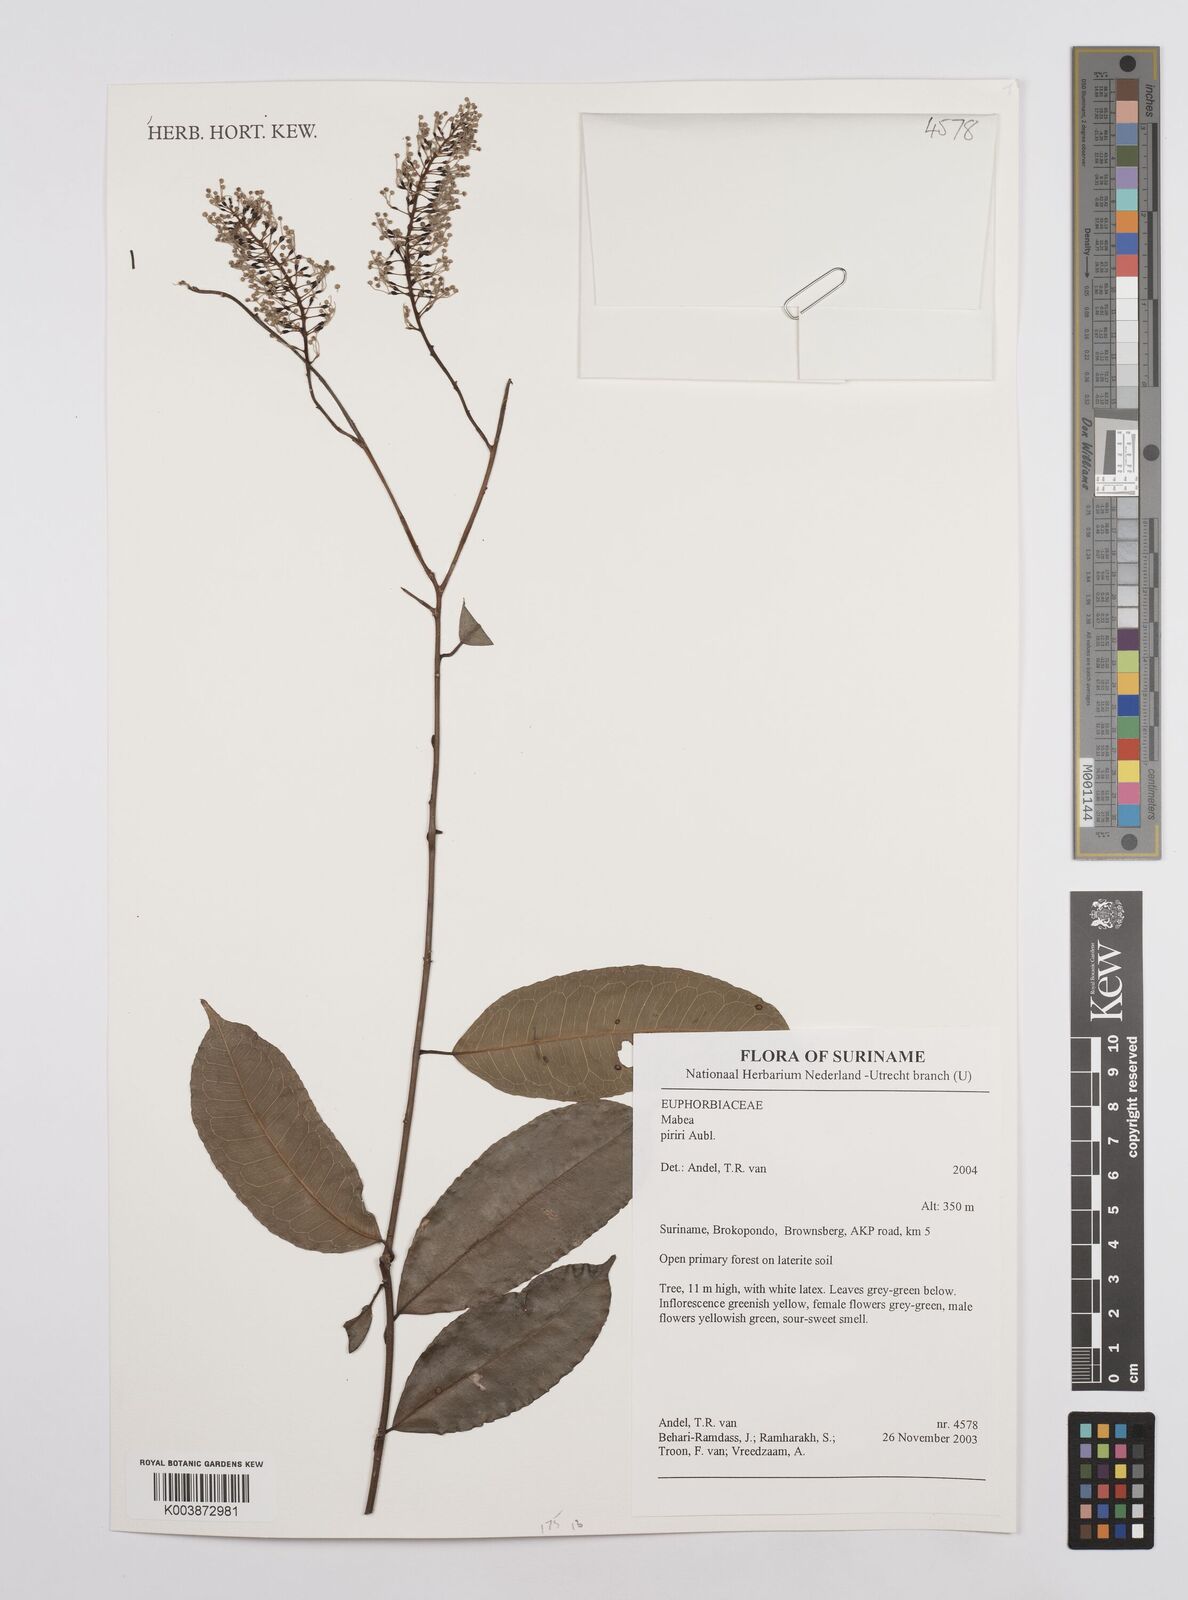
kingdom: Plantae
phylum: Tracheophyta
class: Magnoliopsida
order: Malpighiales
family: Euphorbiaceae
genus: Mabea
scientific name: Mabea piriri
